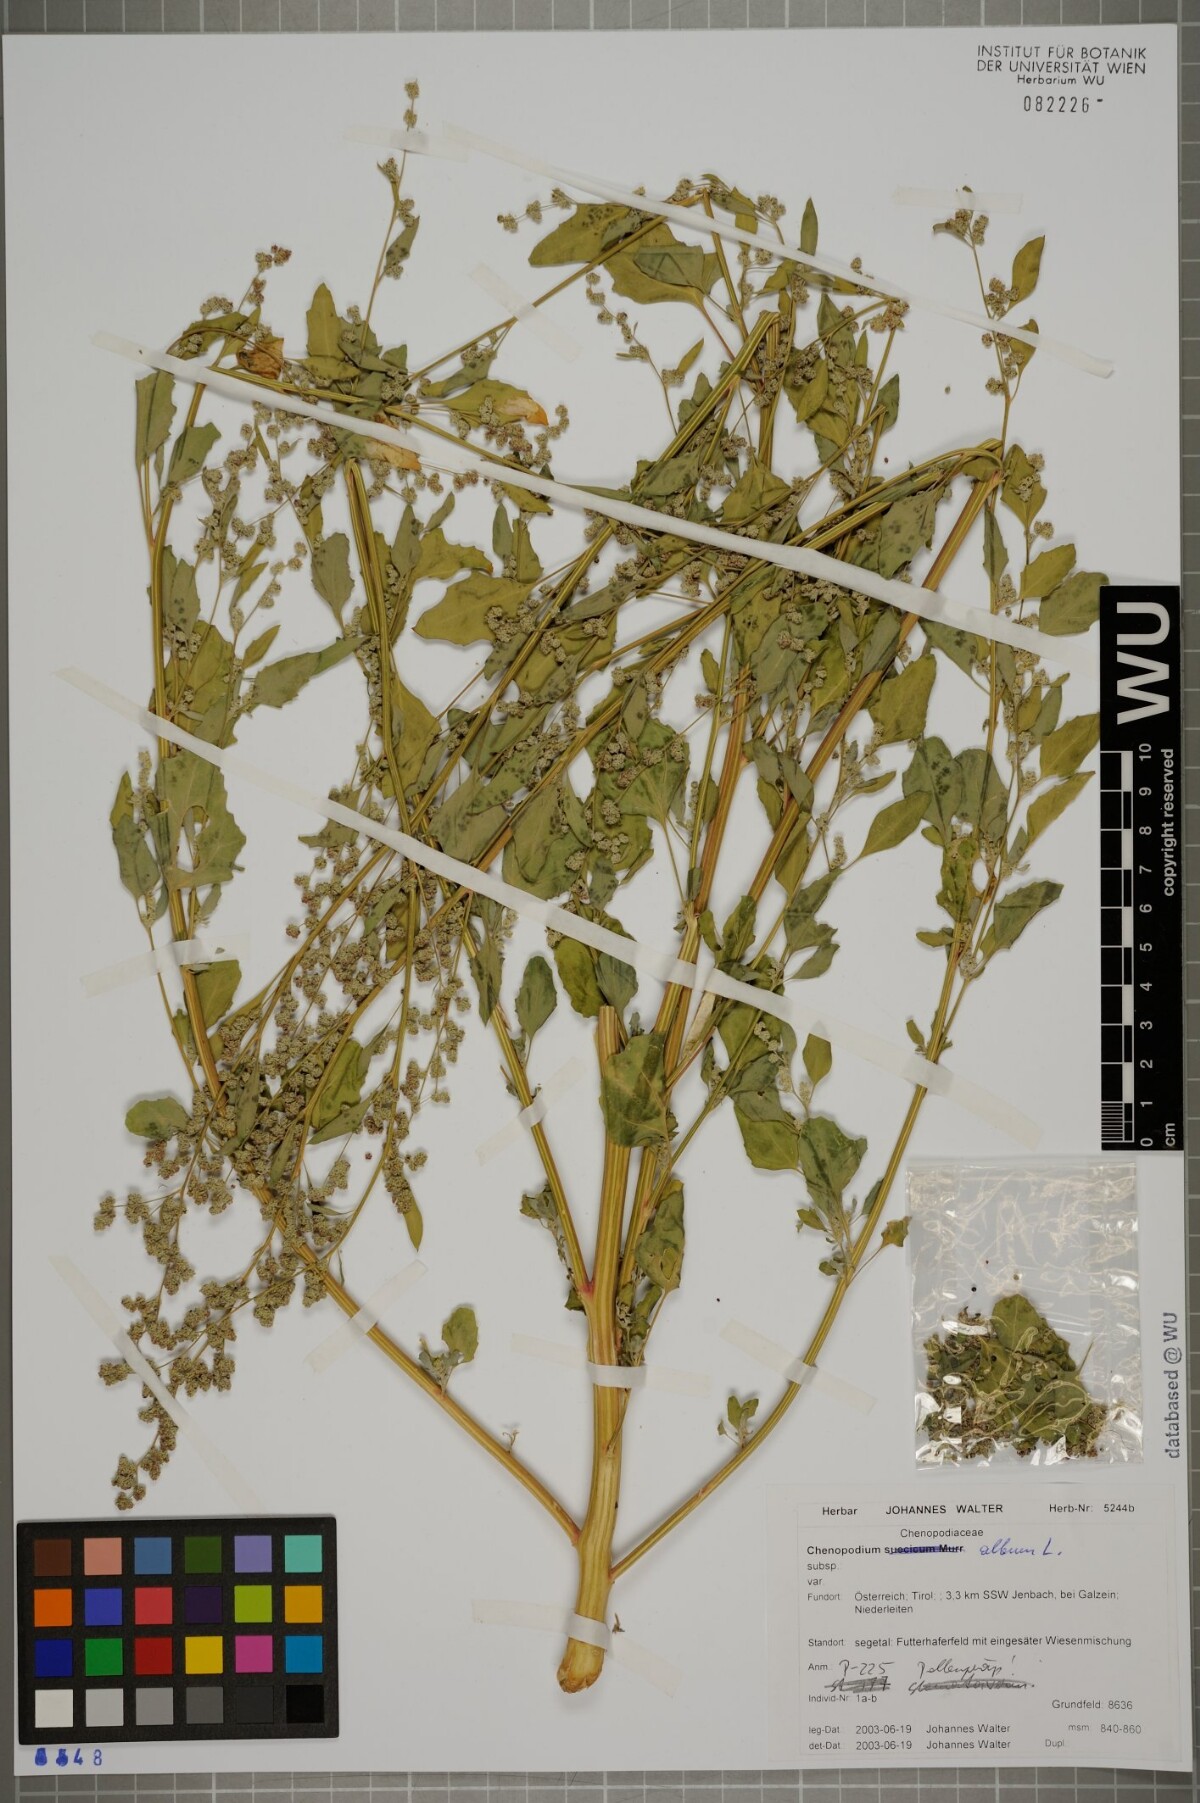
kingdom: Plantae
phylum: Tracheophyta
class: Magnoliopsida
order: Caryophyllales
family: Amaranthaceae
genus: Chenopodium
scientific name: Chenopodium album
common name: Fat-hen
